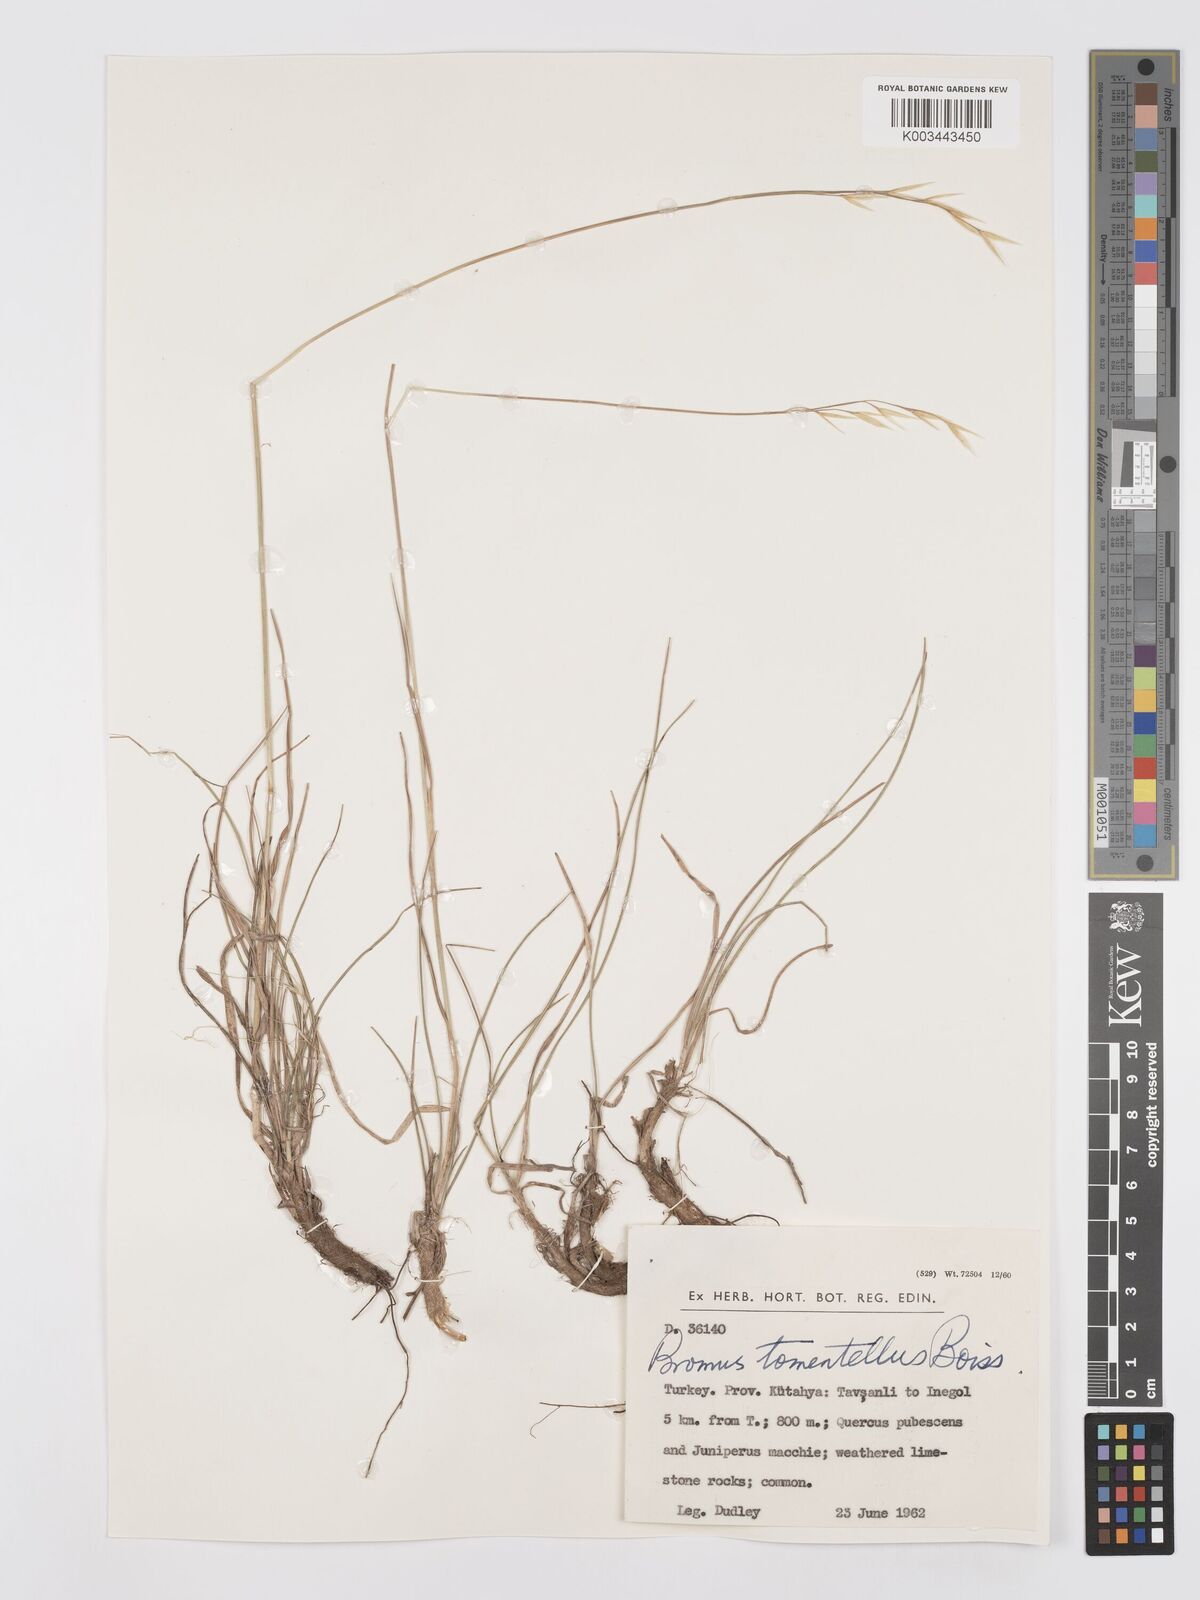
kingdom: Plantae
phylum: Tracheophyta
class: Liliopsida
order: Poales
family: Poaceae
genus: Bromus
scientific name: Bromus tomentellus
